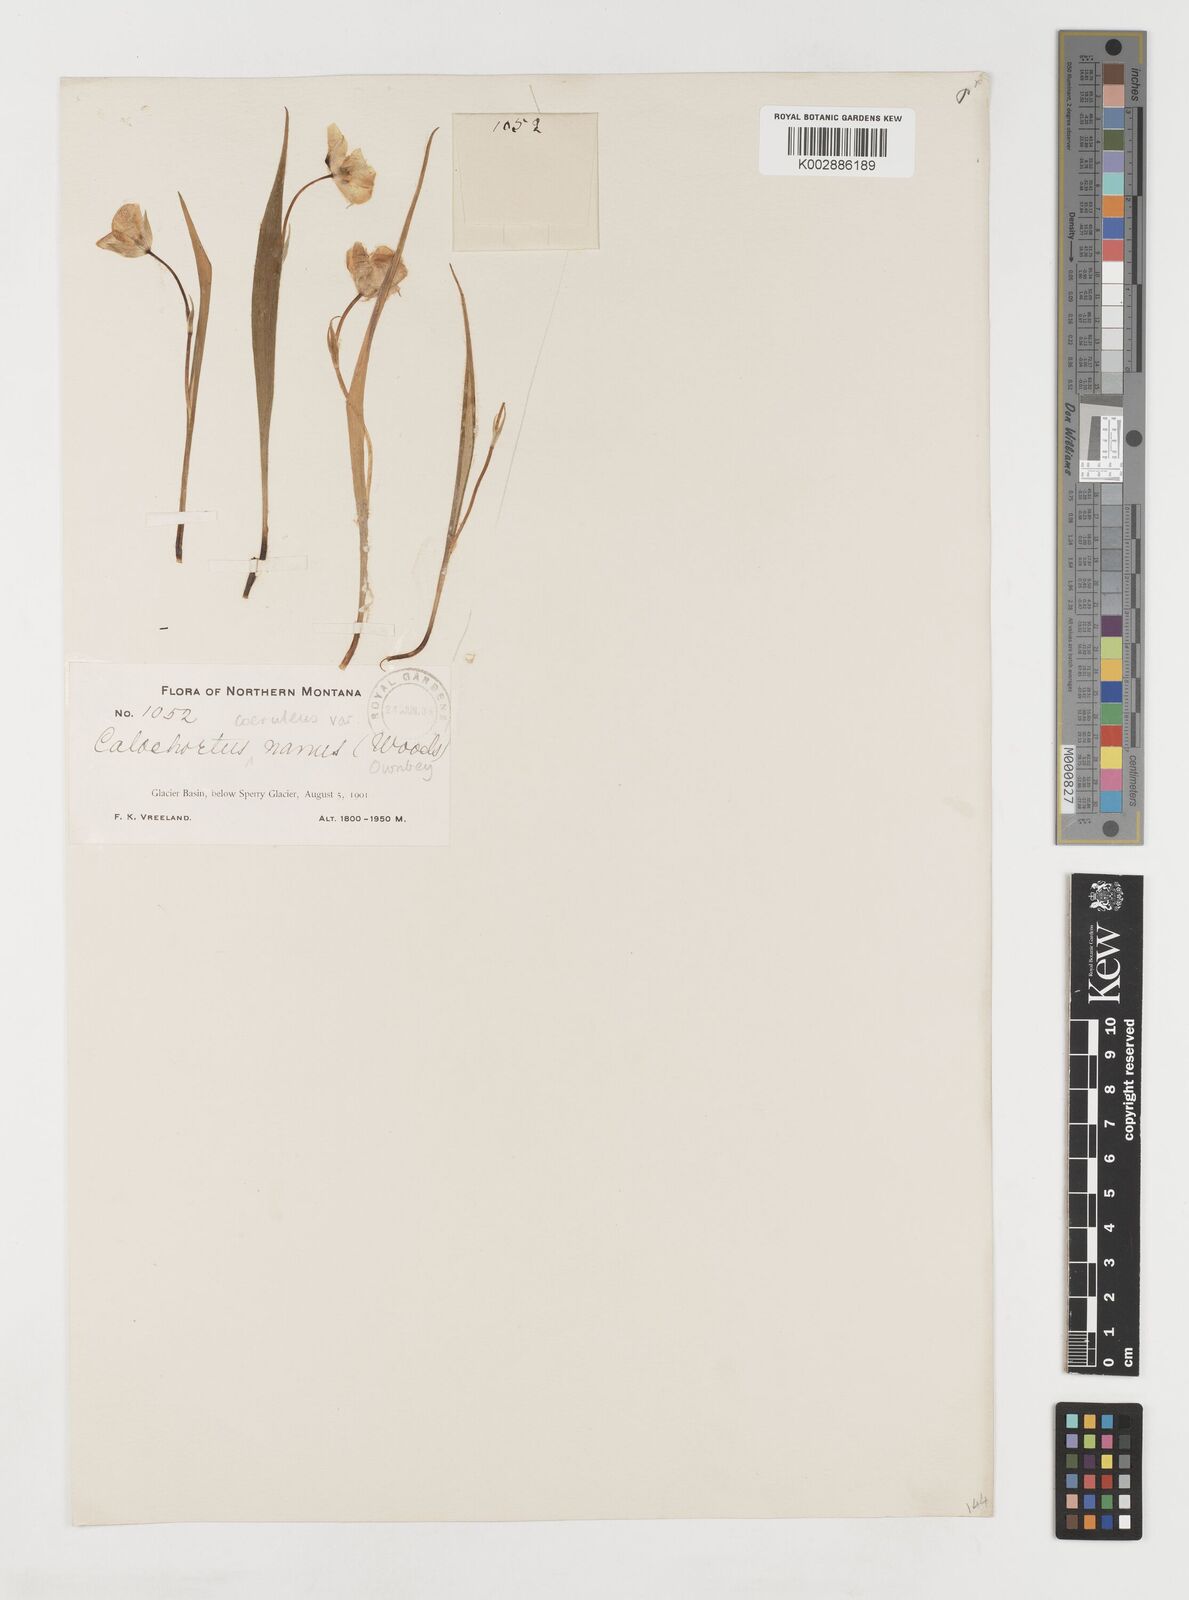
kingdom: Plantae
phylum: Tracheophyta
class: Liliopsida
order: Liliales
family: Liliaceae
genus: Calochortus
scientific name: Calochortus elegans
